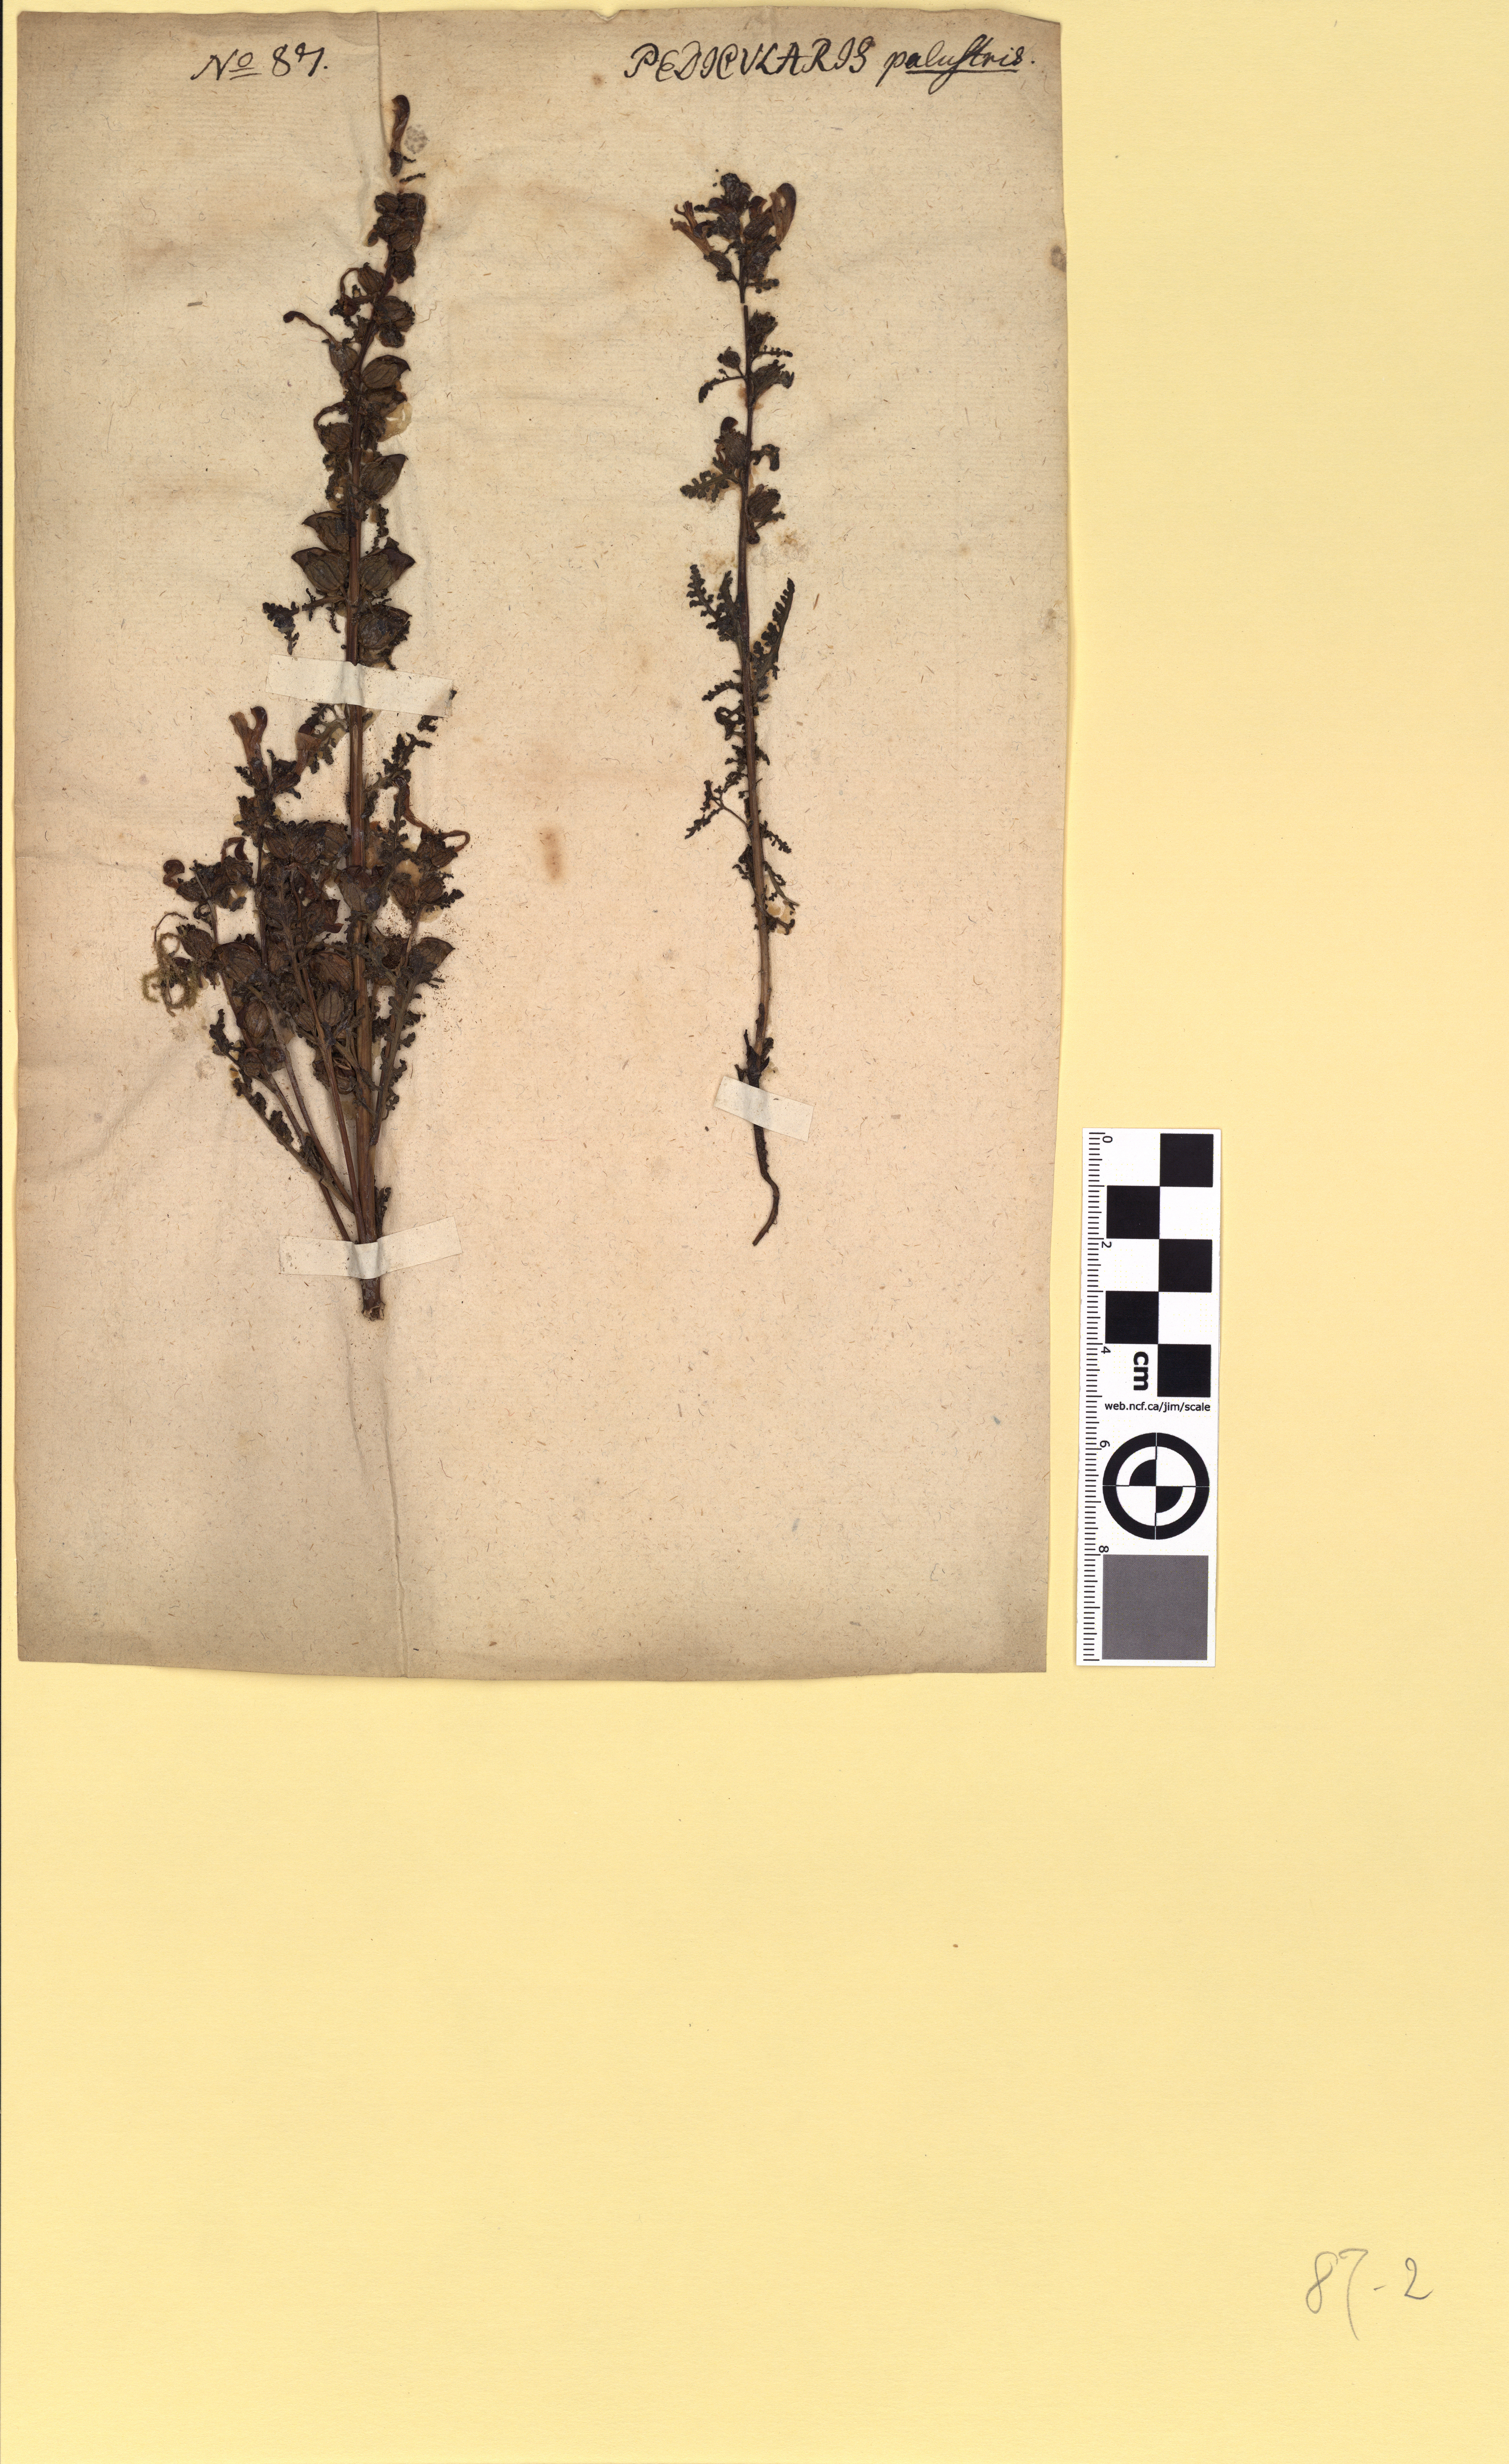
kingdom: Plantae
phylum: Tracheophyta
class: Magnoliopsida
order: Lamiales
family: Orobanchaceae
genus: Pedicularis
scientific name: Pedicularis palustris
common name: Marsh lousewort
